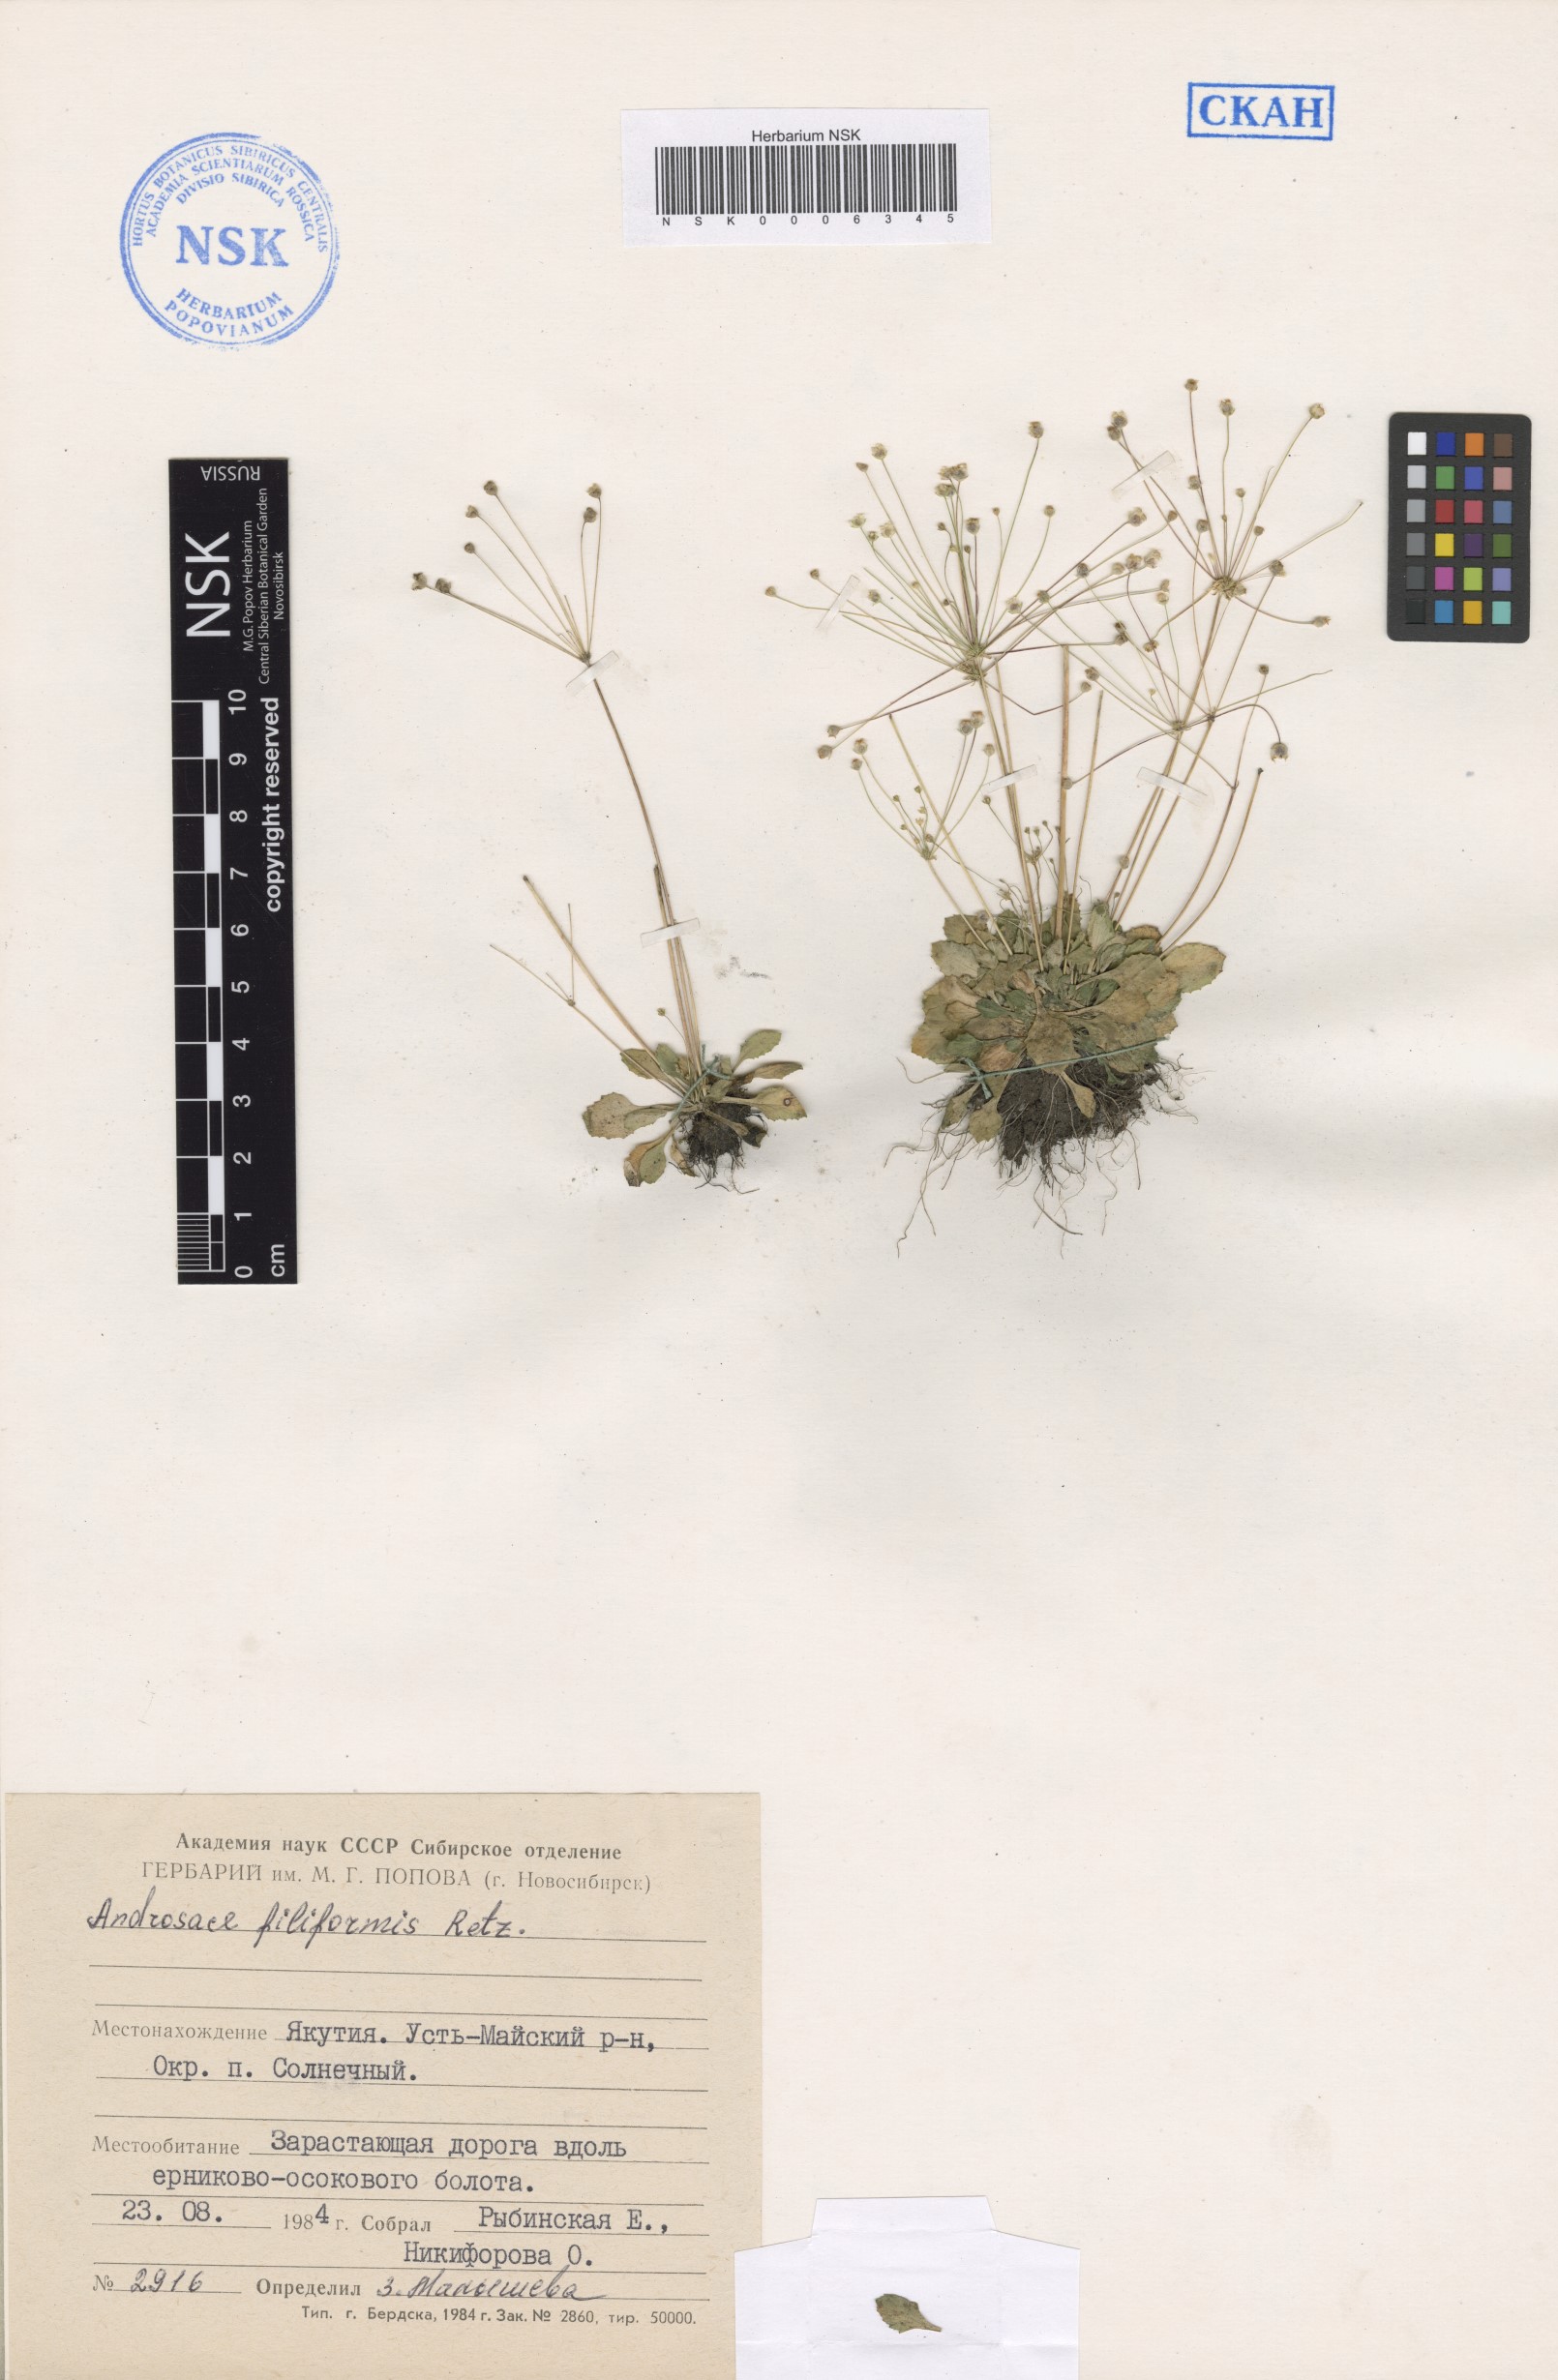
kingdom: Plantae
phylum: Tracheophyta
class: Magnoliopsida
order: Ericales
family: Primulaceae
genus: Androsace
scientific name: Androsace filiformis
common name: Filiform rock jasmine
